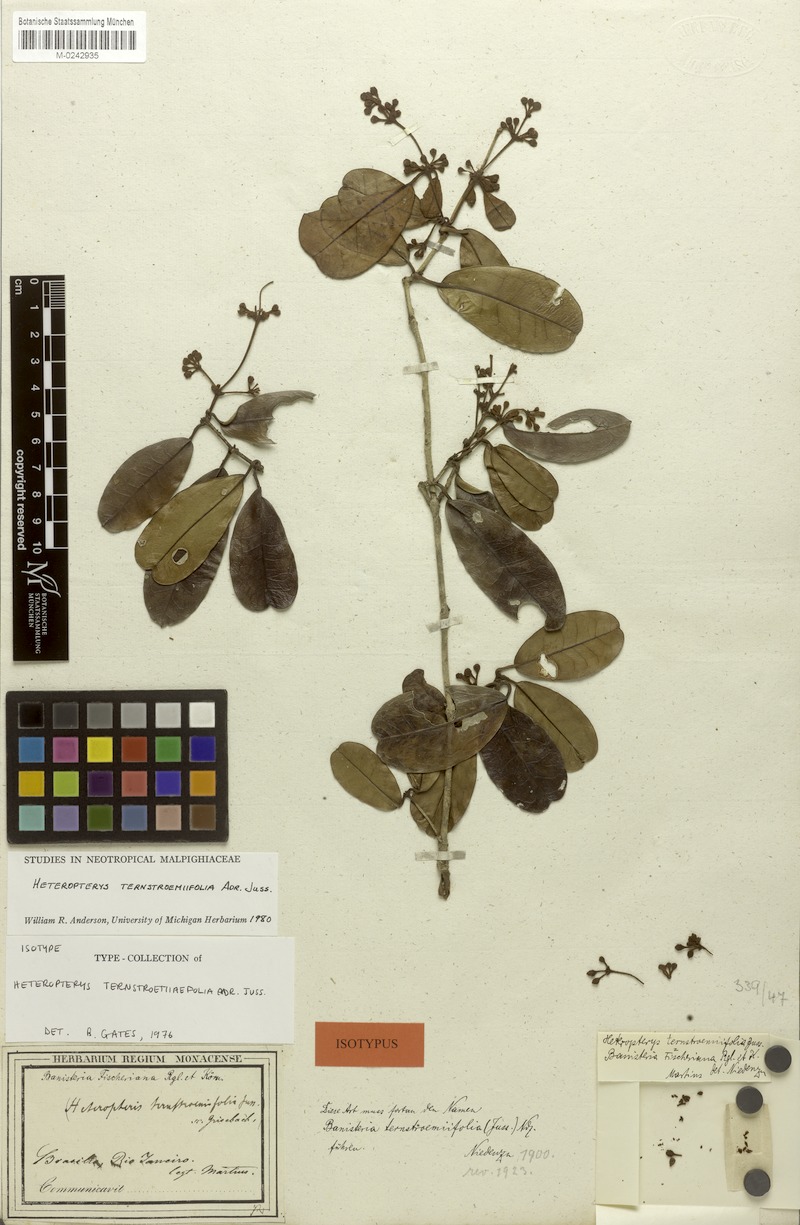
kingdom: Plantae
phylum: Tracheophyta
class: Magnoliopsida
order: Malpighiales
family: Malpighiaceae
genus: Heteropterys
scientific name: Heteropterys ternstroemiifolia
